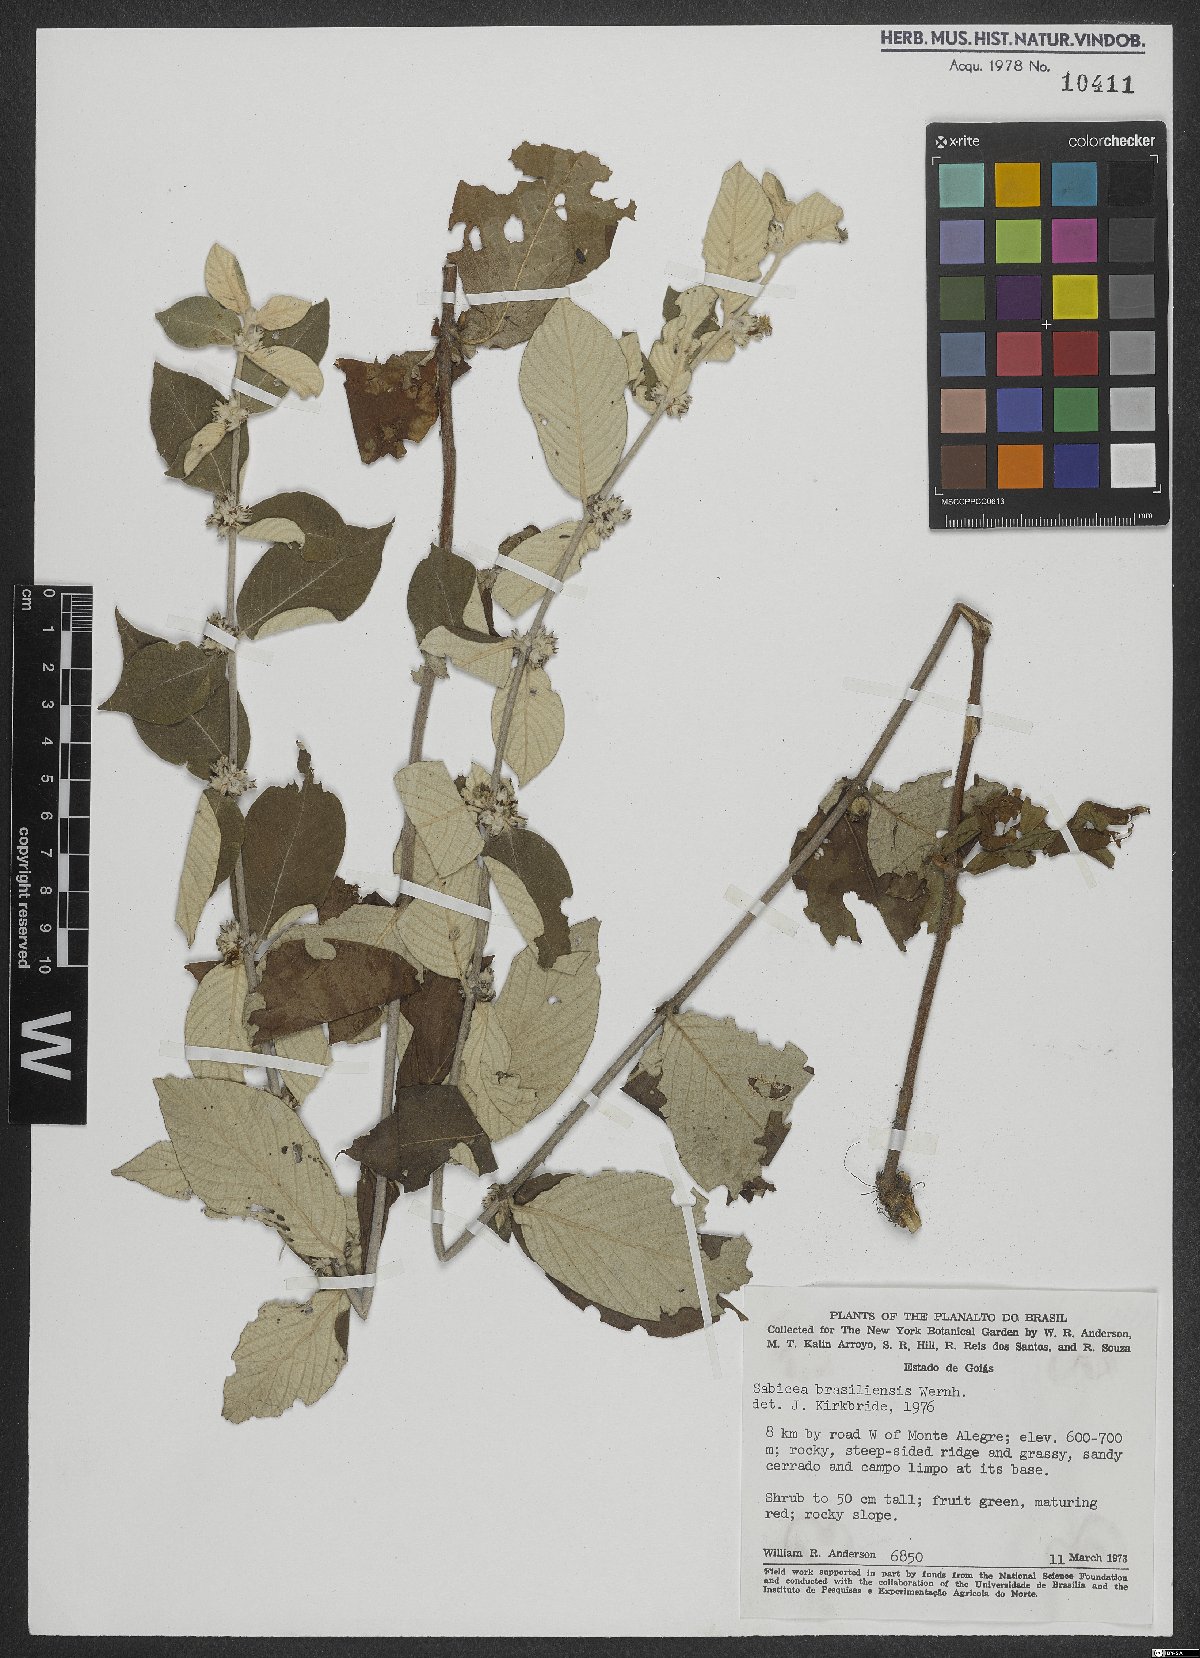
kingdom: Plantae
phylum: Tracheophyta
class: Magnoliopsida
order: Gentianales
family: Rubiaceae
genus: Sabicea
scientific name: Sabicea brasiliensis
